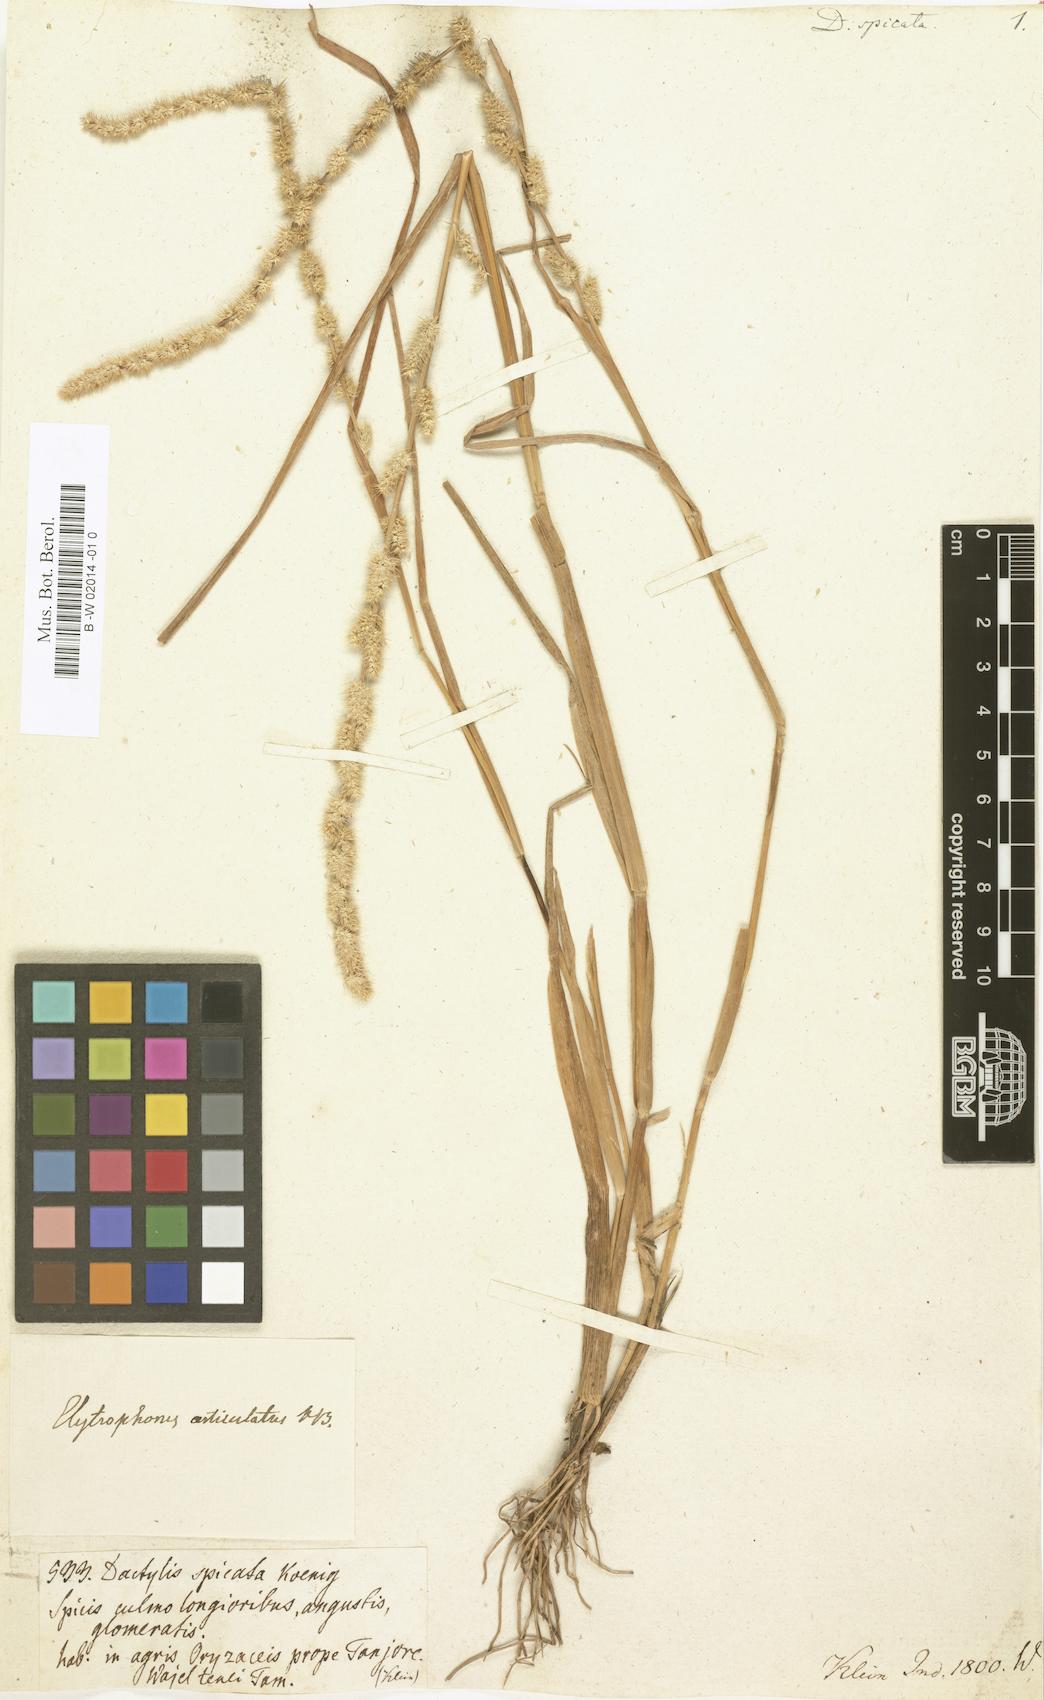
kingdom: Plantae
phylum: Tracheophyta
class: Liliopsida
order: Poales
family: Poaceae
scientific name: Poaceae
